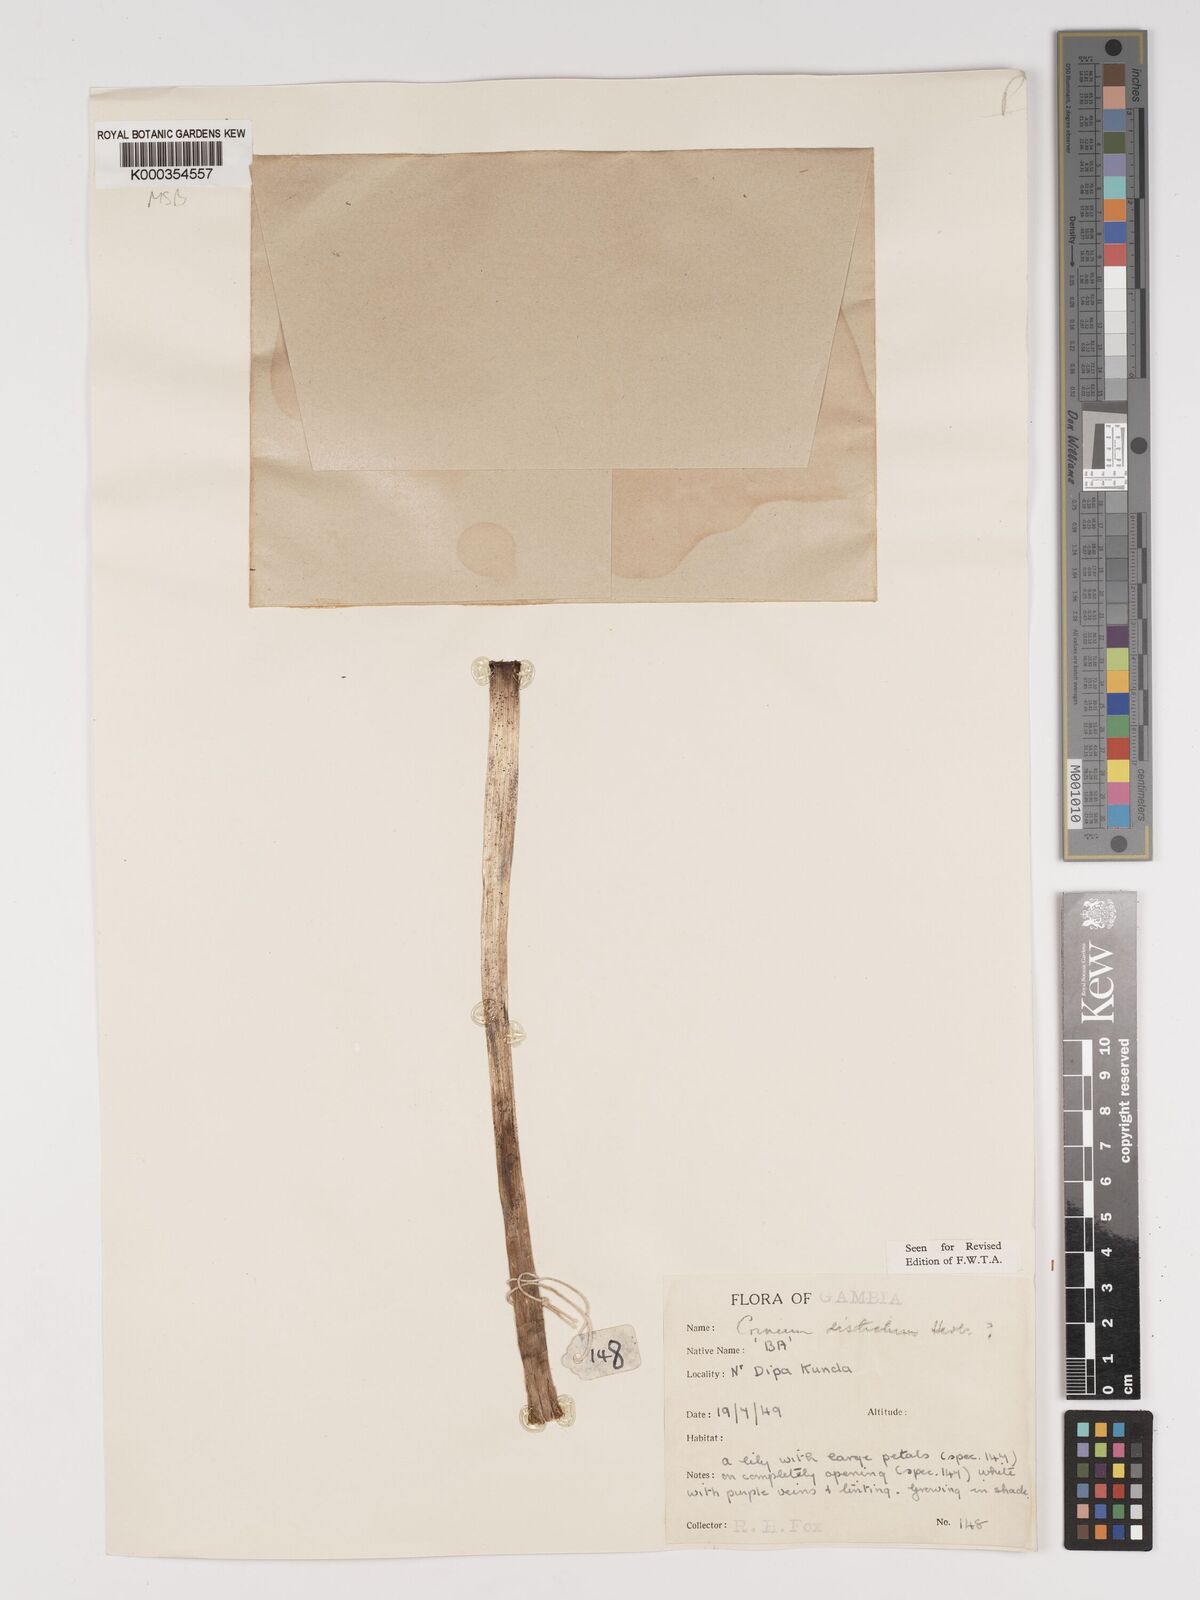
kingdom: Plantae
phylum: Tracheophyta
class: Liliopsida
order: Asparagales
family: Amaryllidaceae
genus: Crinum
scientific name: Crinum zeylanicum
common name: Ceylon swamplily
